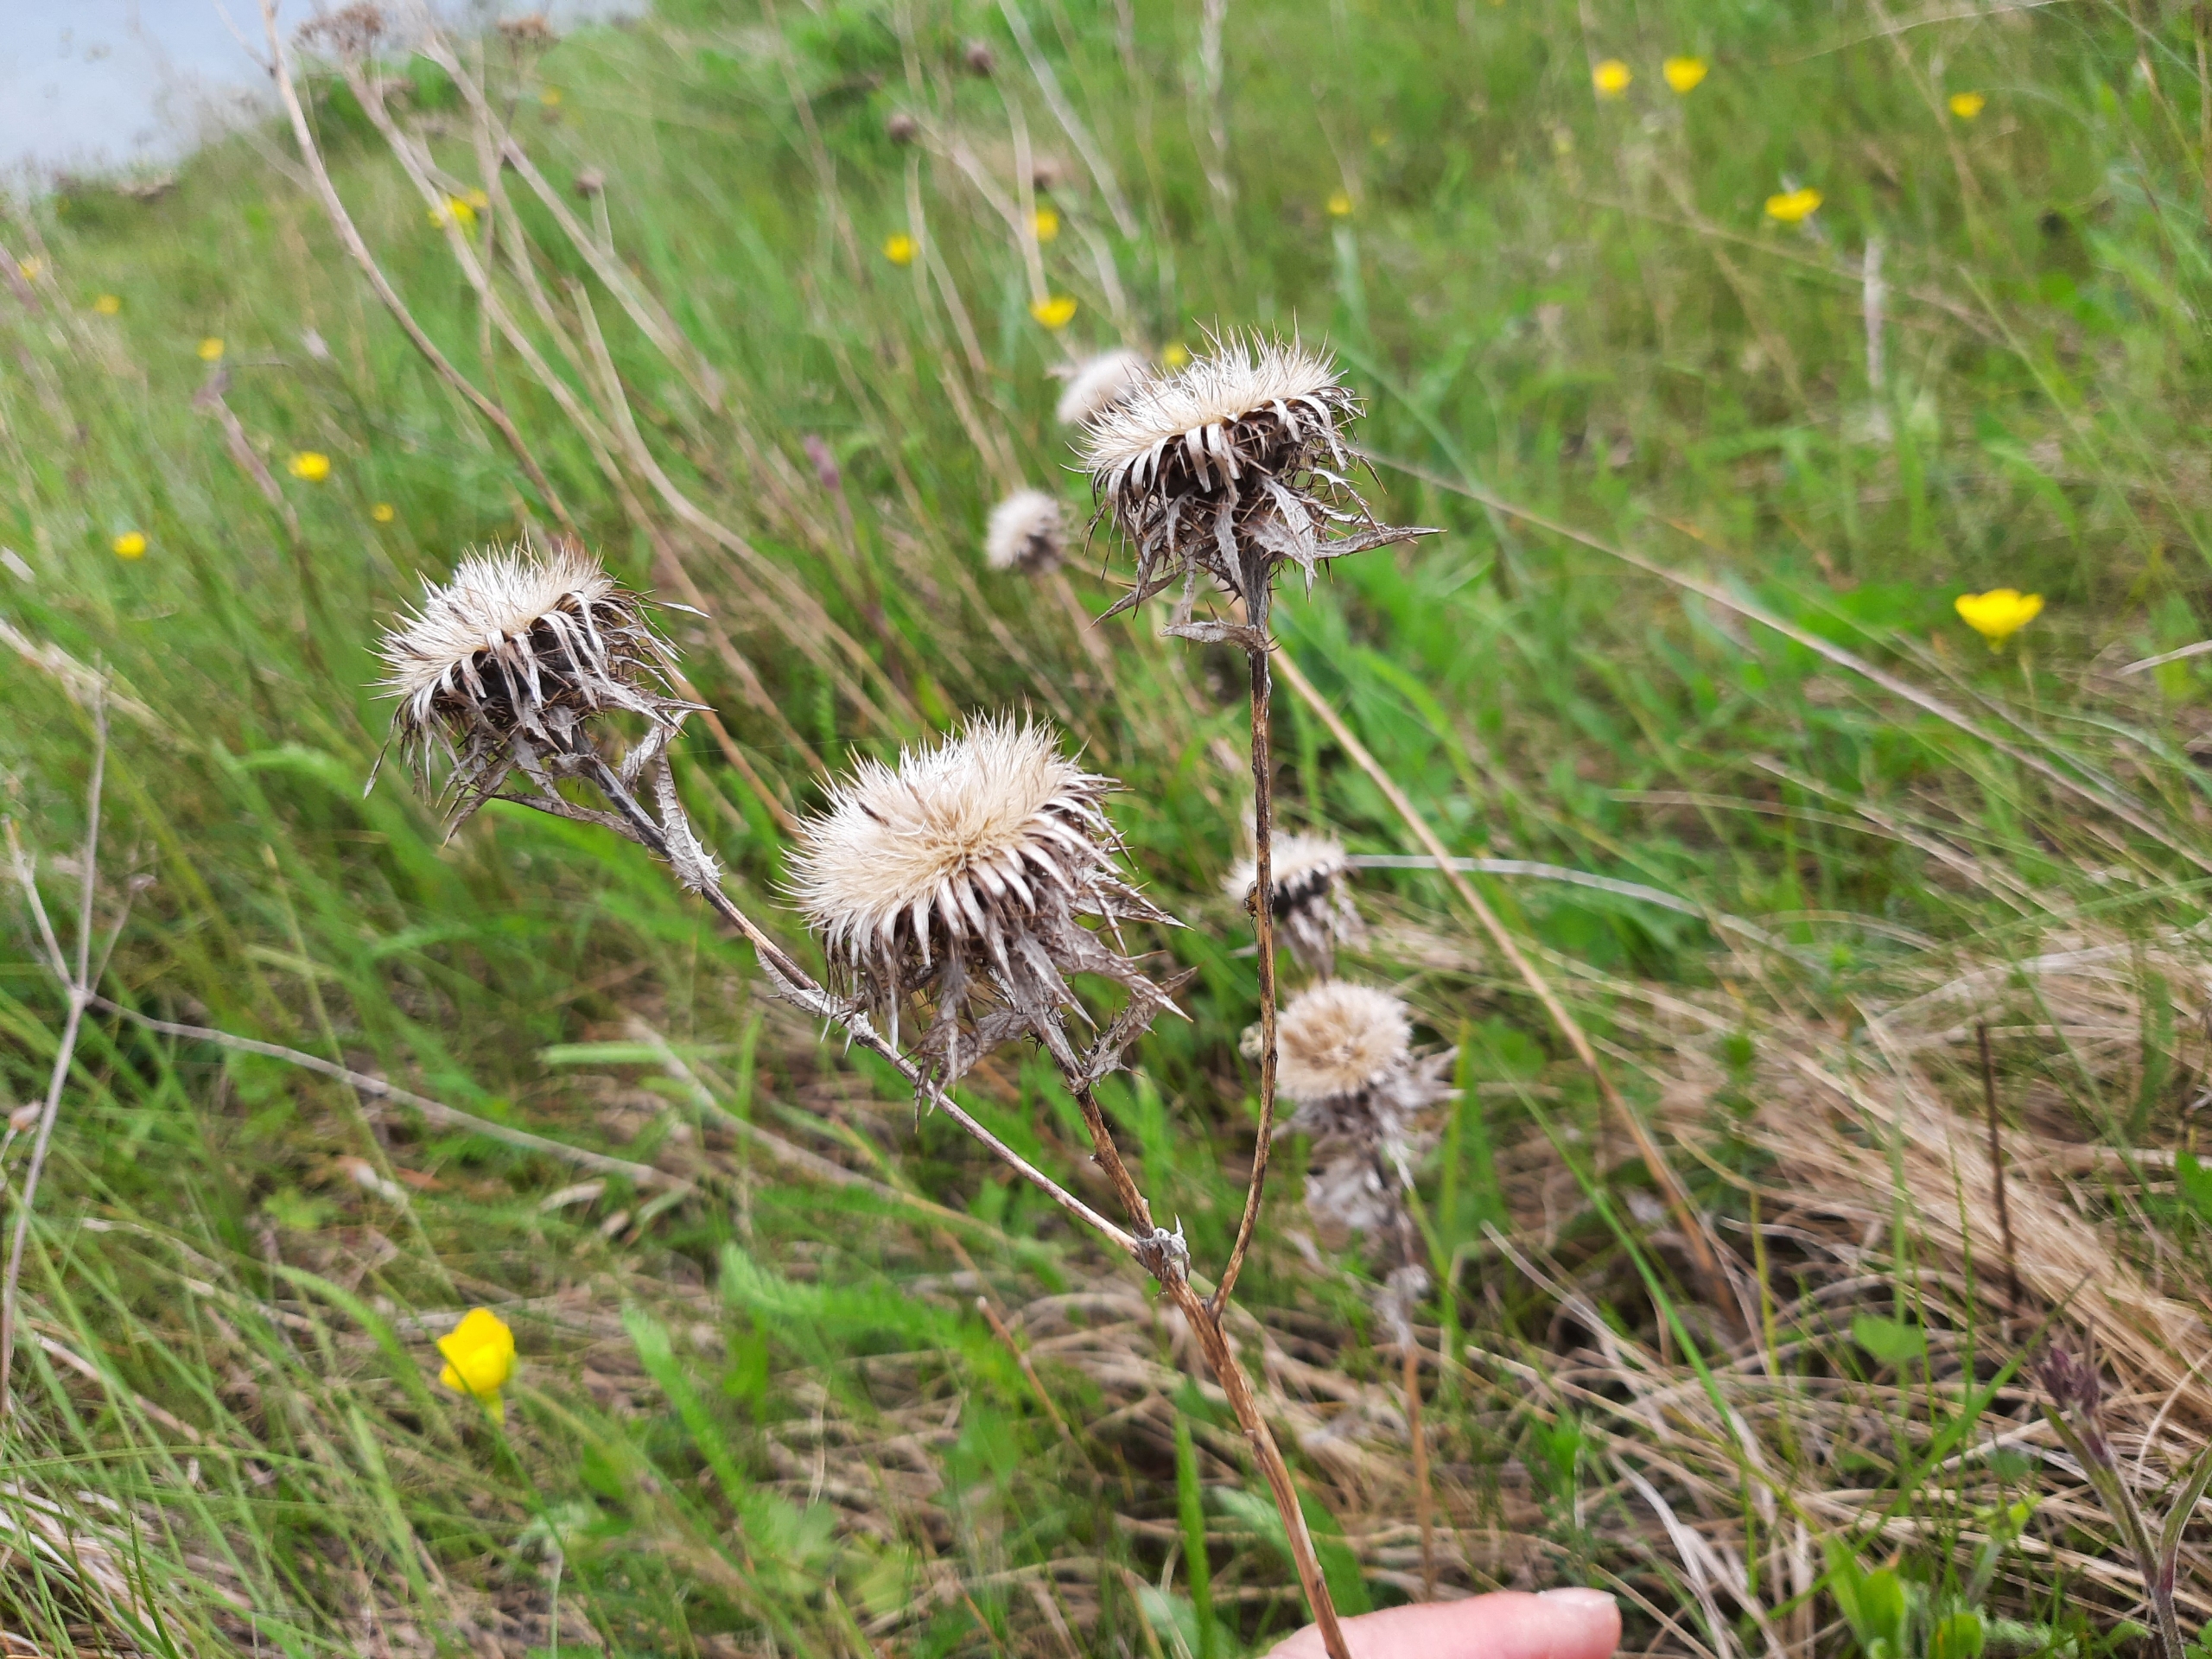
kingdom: Plantae
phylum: Tracheophyta
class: Magnoliopsida
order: Asterales
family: Asteraceae
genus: Carlina
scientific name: Carlina vulgaris
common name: Bakketidsel
